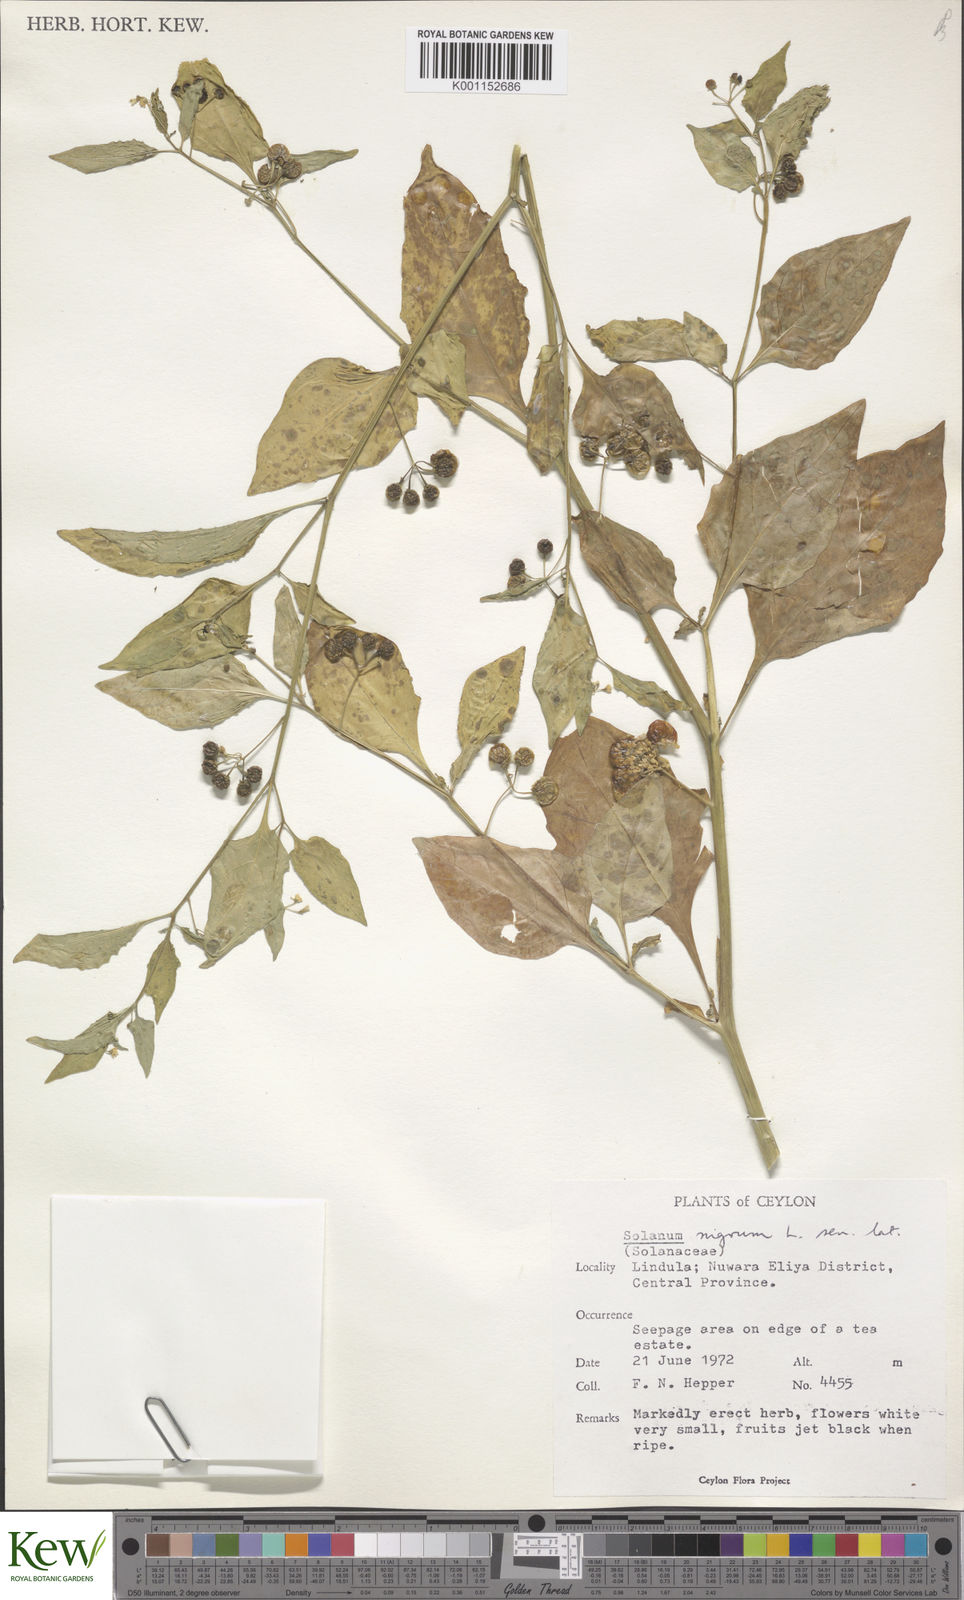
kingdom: Plantae
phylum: Tracheophyta
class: Magnoliopsida
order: Solanales
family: Solanaceae
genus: Solanum
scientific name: Solanum nigrum
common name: Black nightshade
